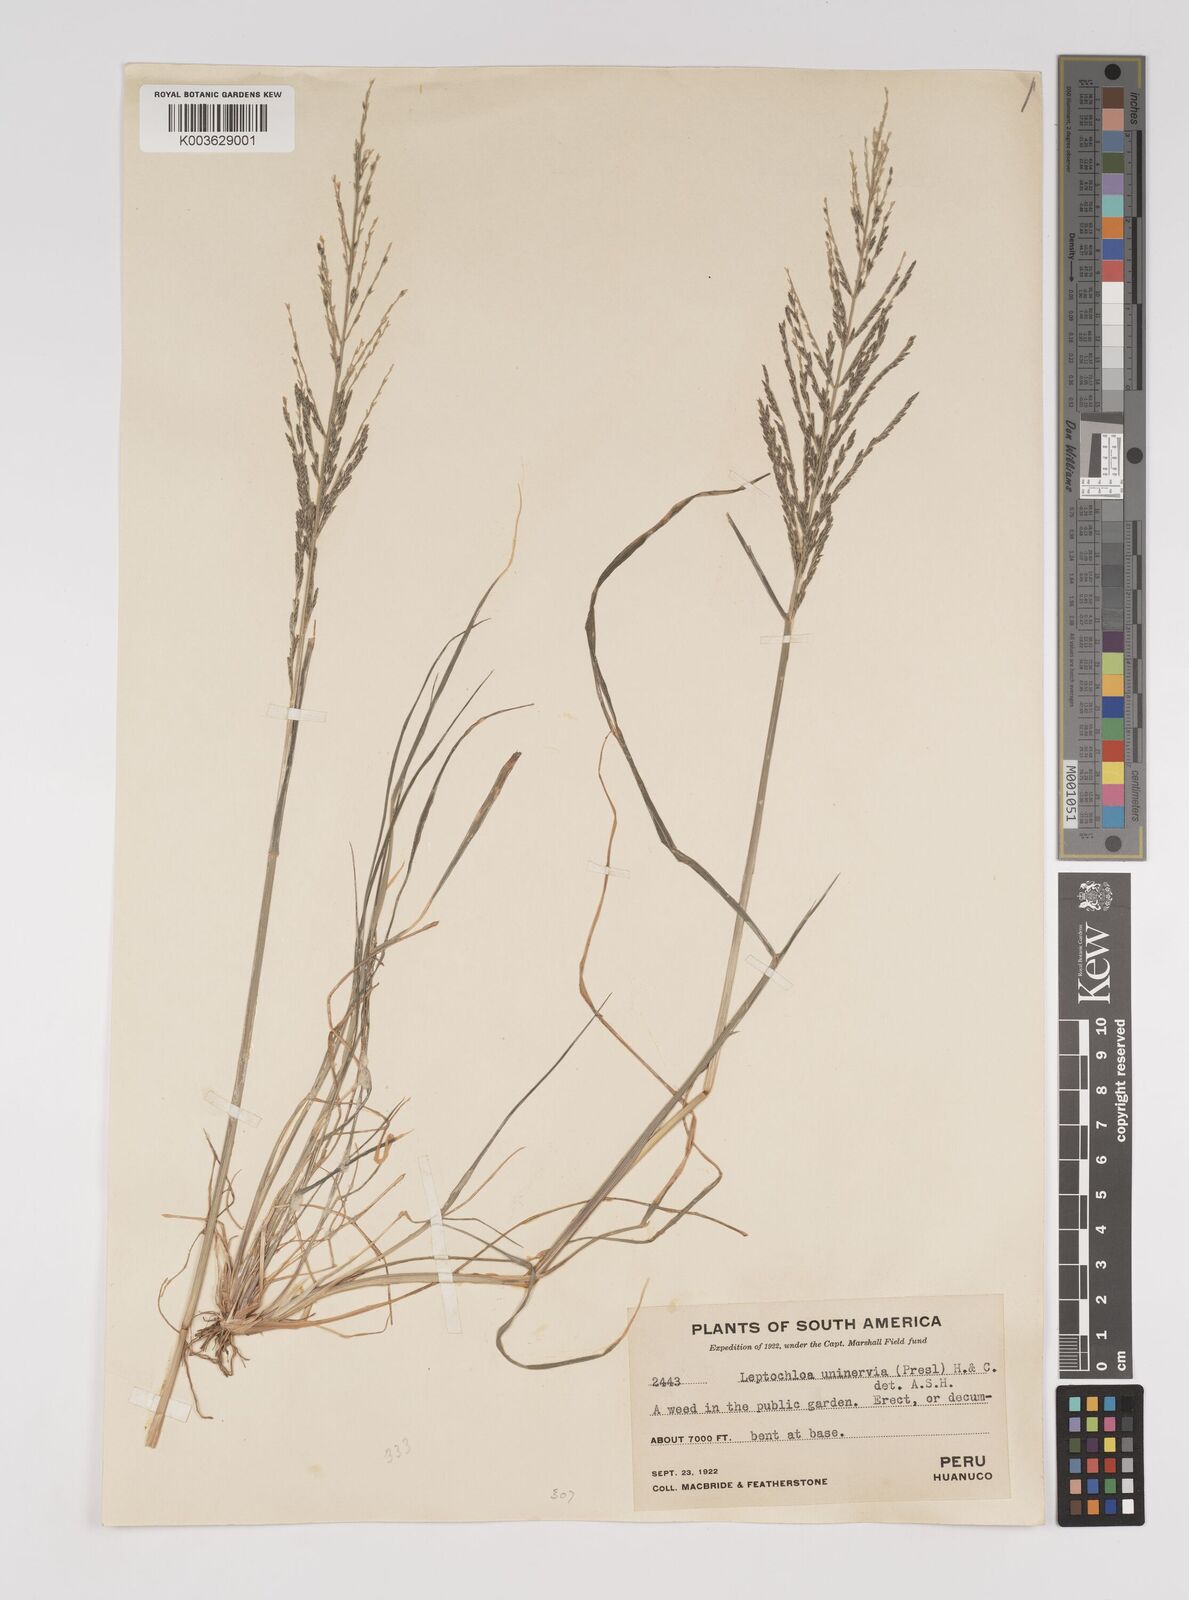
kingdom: Plantae
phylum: Tracheophyta
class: Liliopsida
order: Poales
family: Poaceae
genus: Diplachne
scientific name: Diplachne fusca
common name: Brown beetle grass
